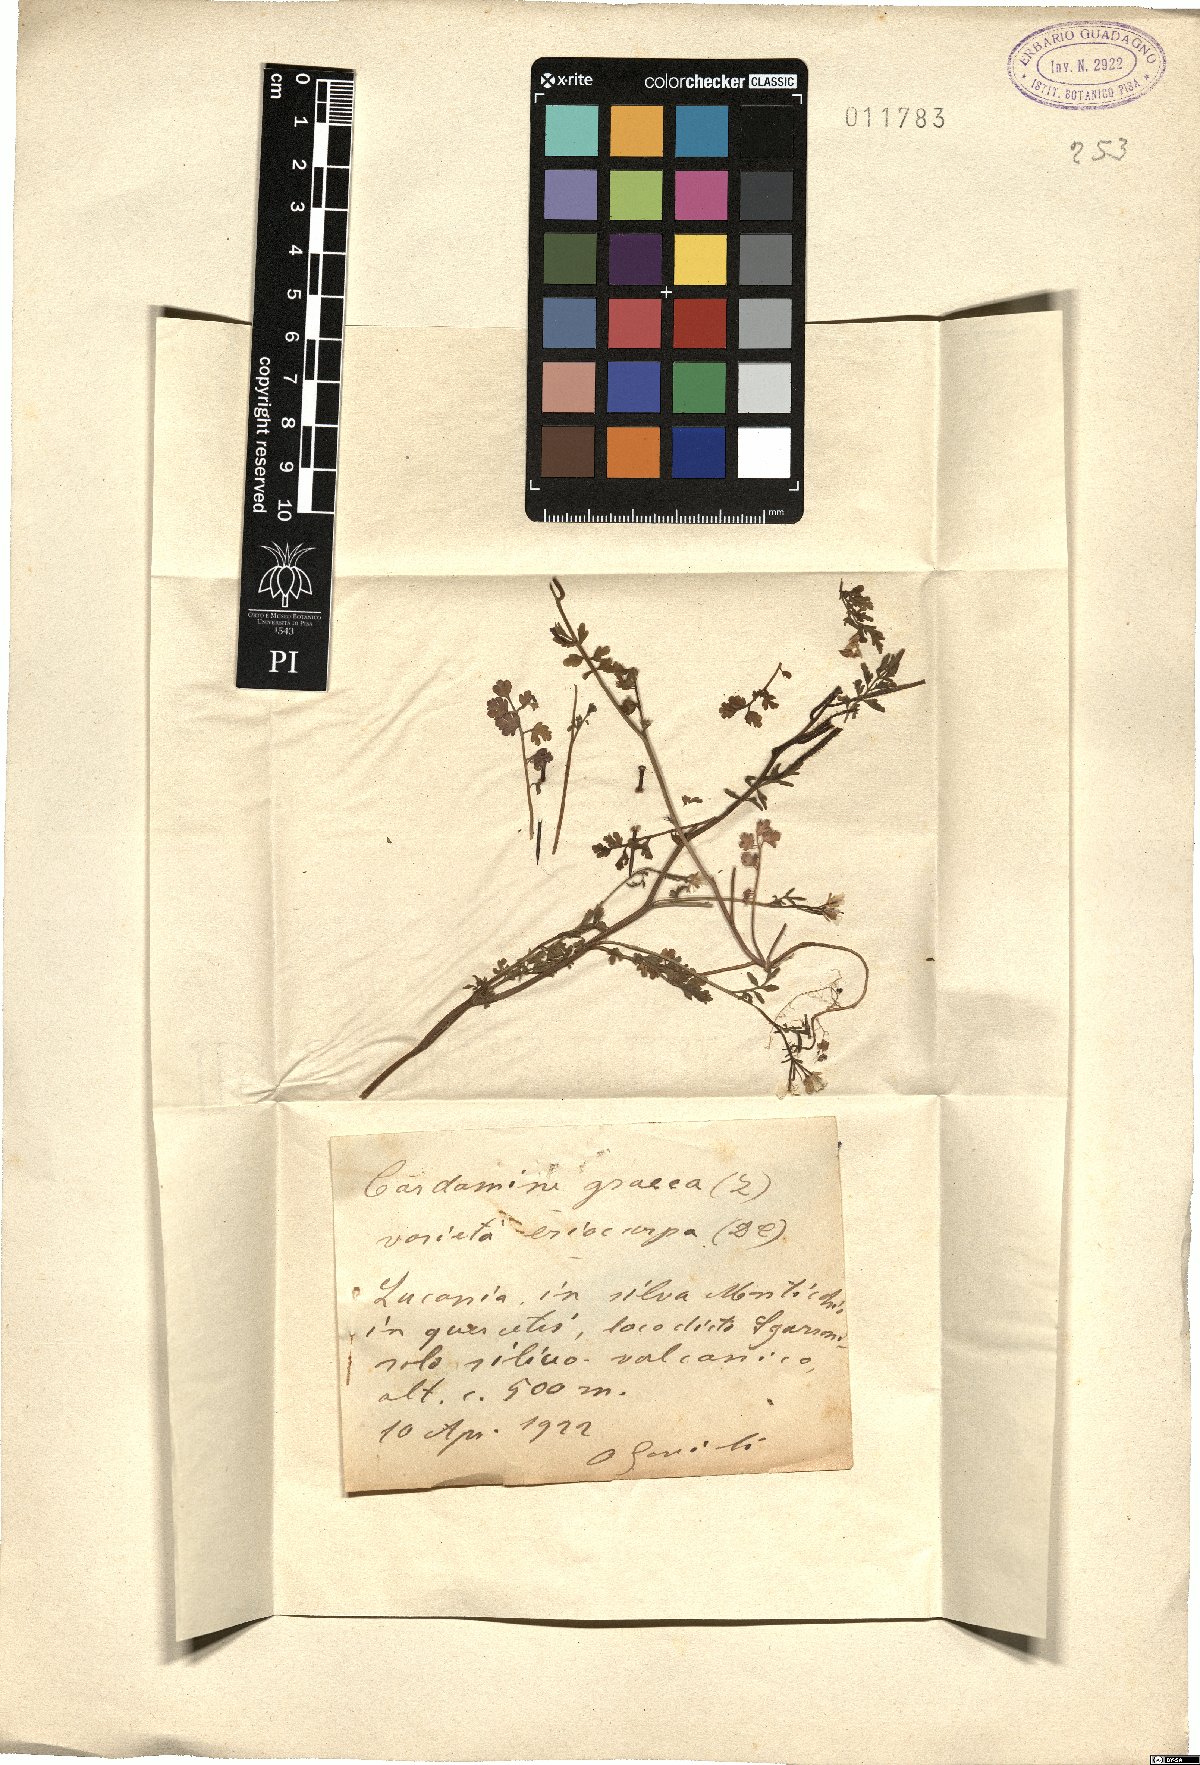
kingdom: Plantae
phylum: Tracheophyta
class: Magnoliopsida
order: Brassicales
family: Brassicaceae
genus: Cardamine
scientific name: Cardamine graeca
